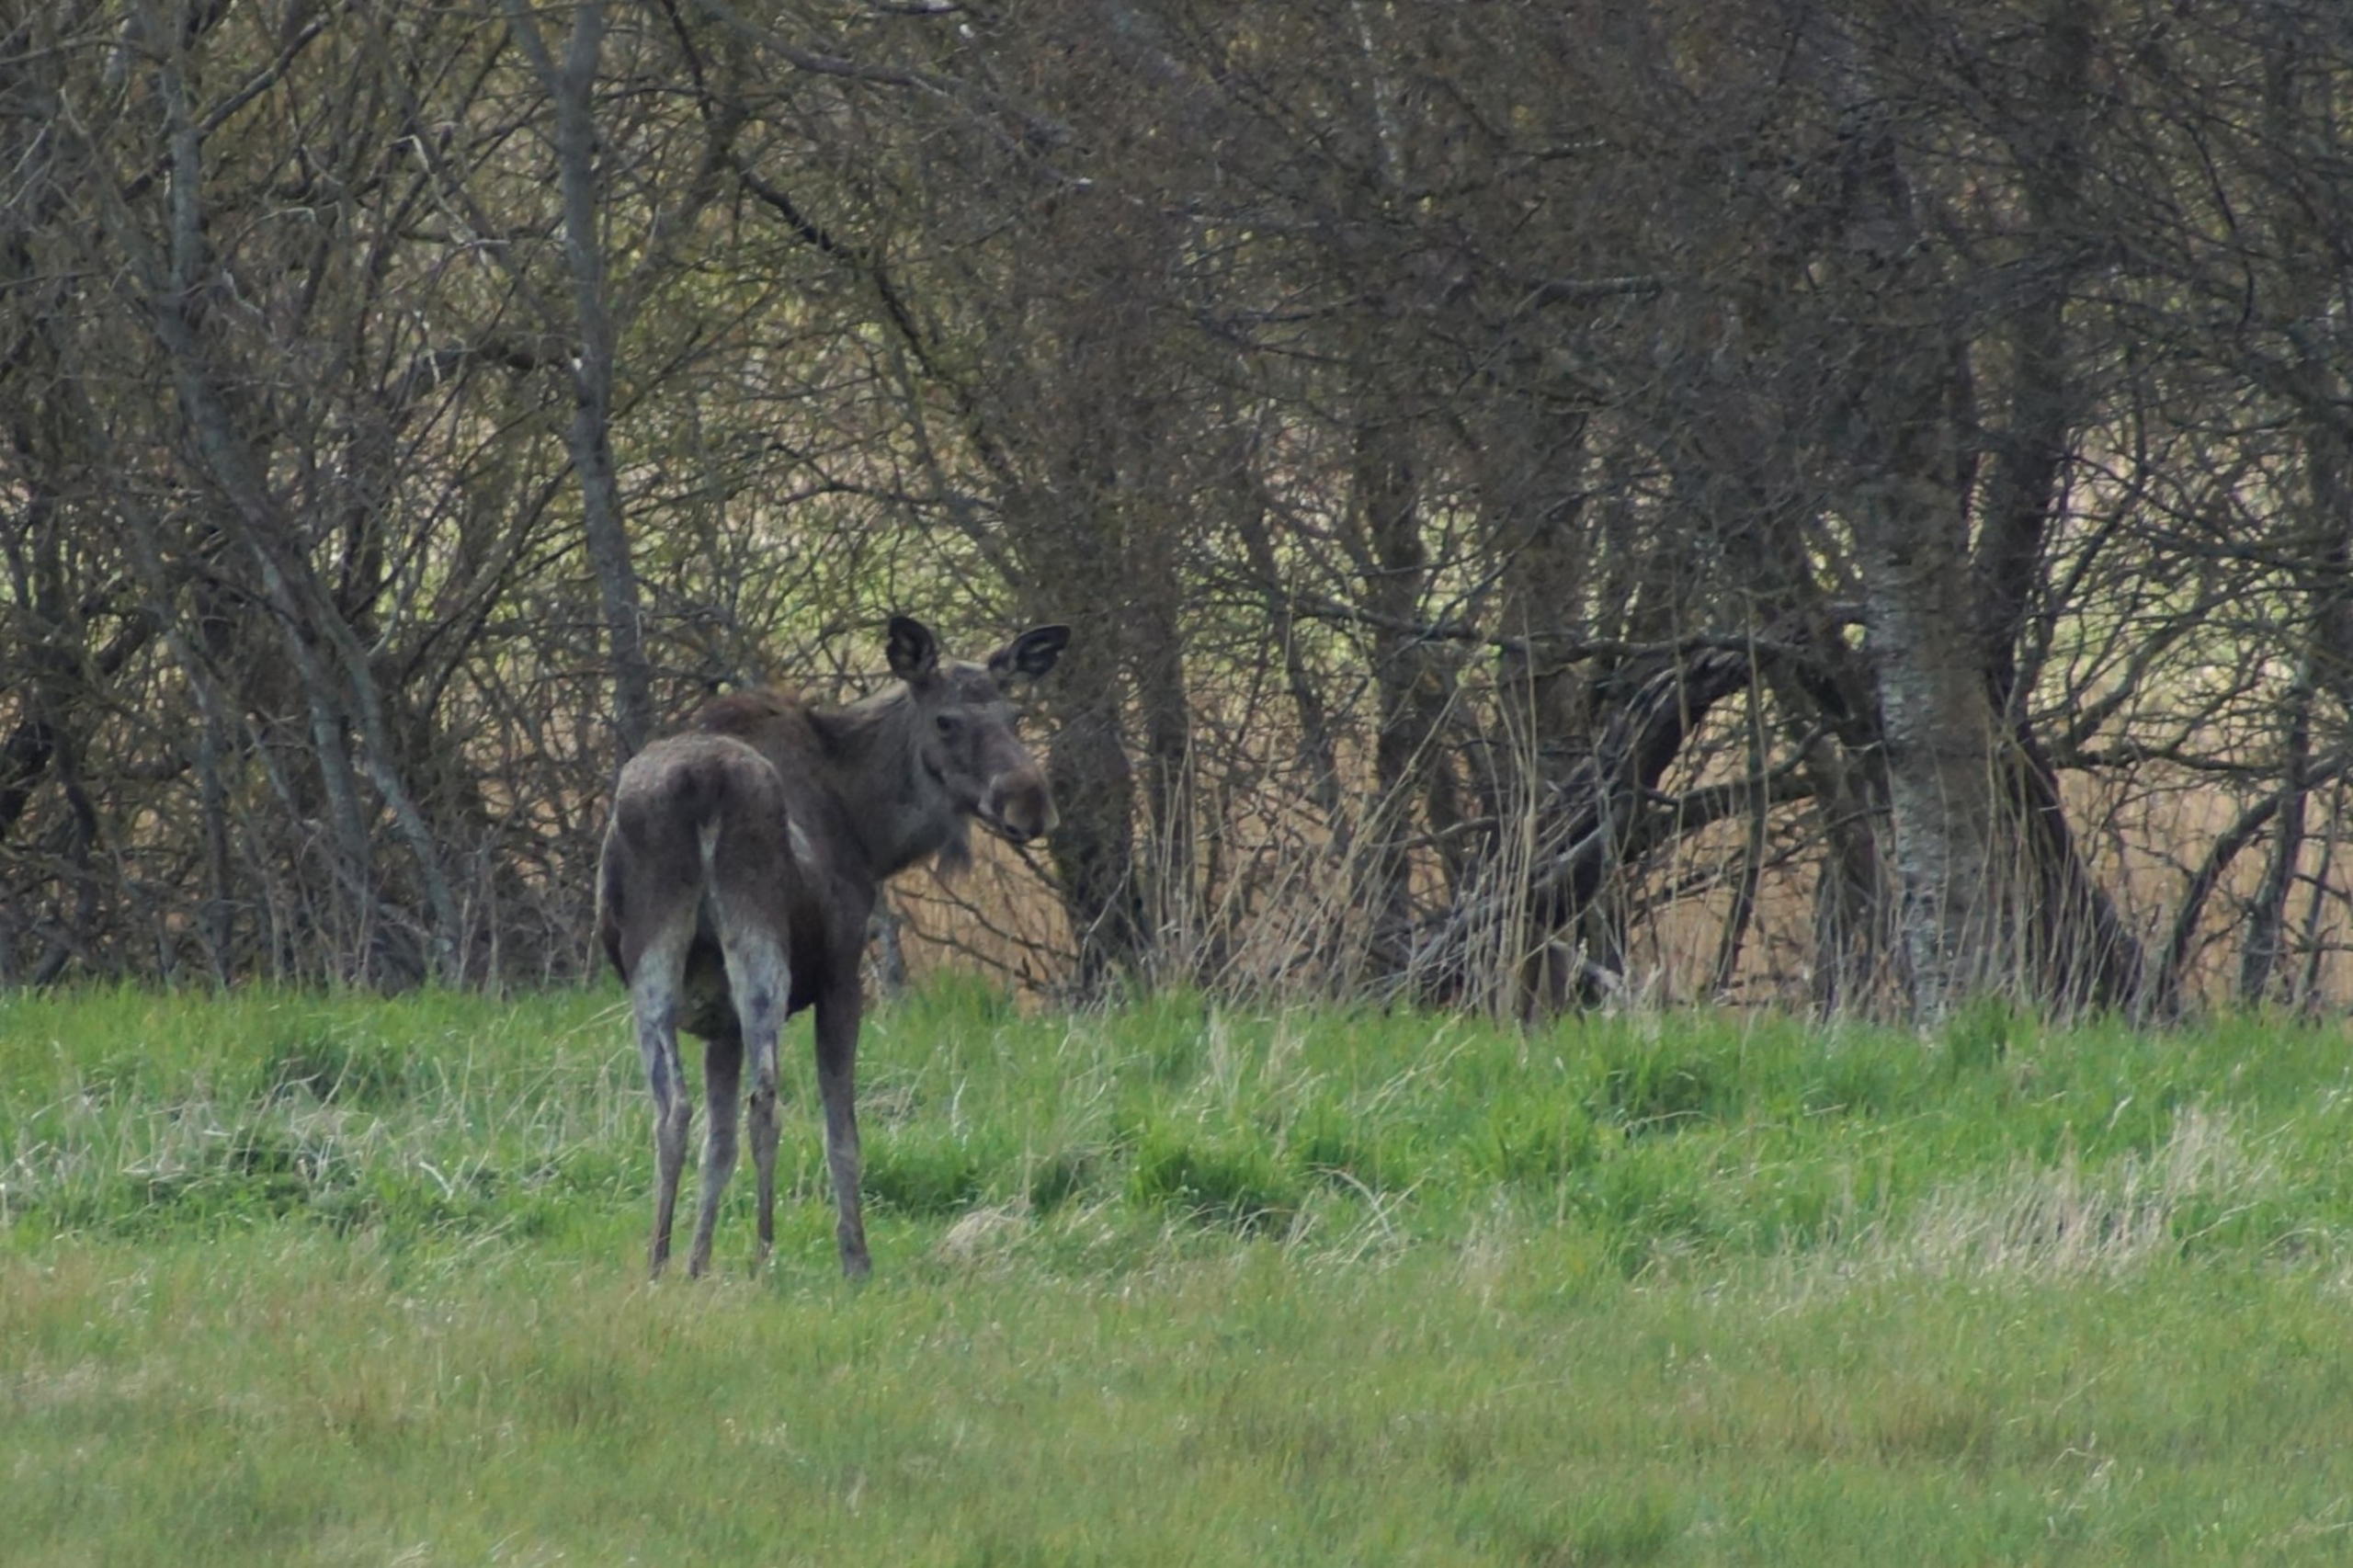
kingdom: Animalia
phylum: Chordata
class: Mammalia
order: Artiodactyla
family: Cervidae
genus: Alces
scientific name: Alces alces
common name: Elg
